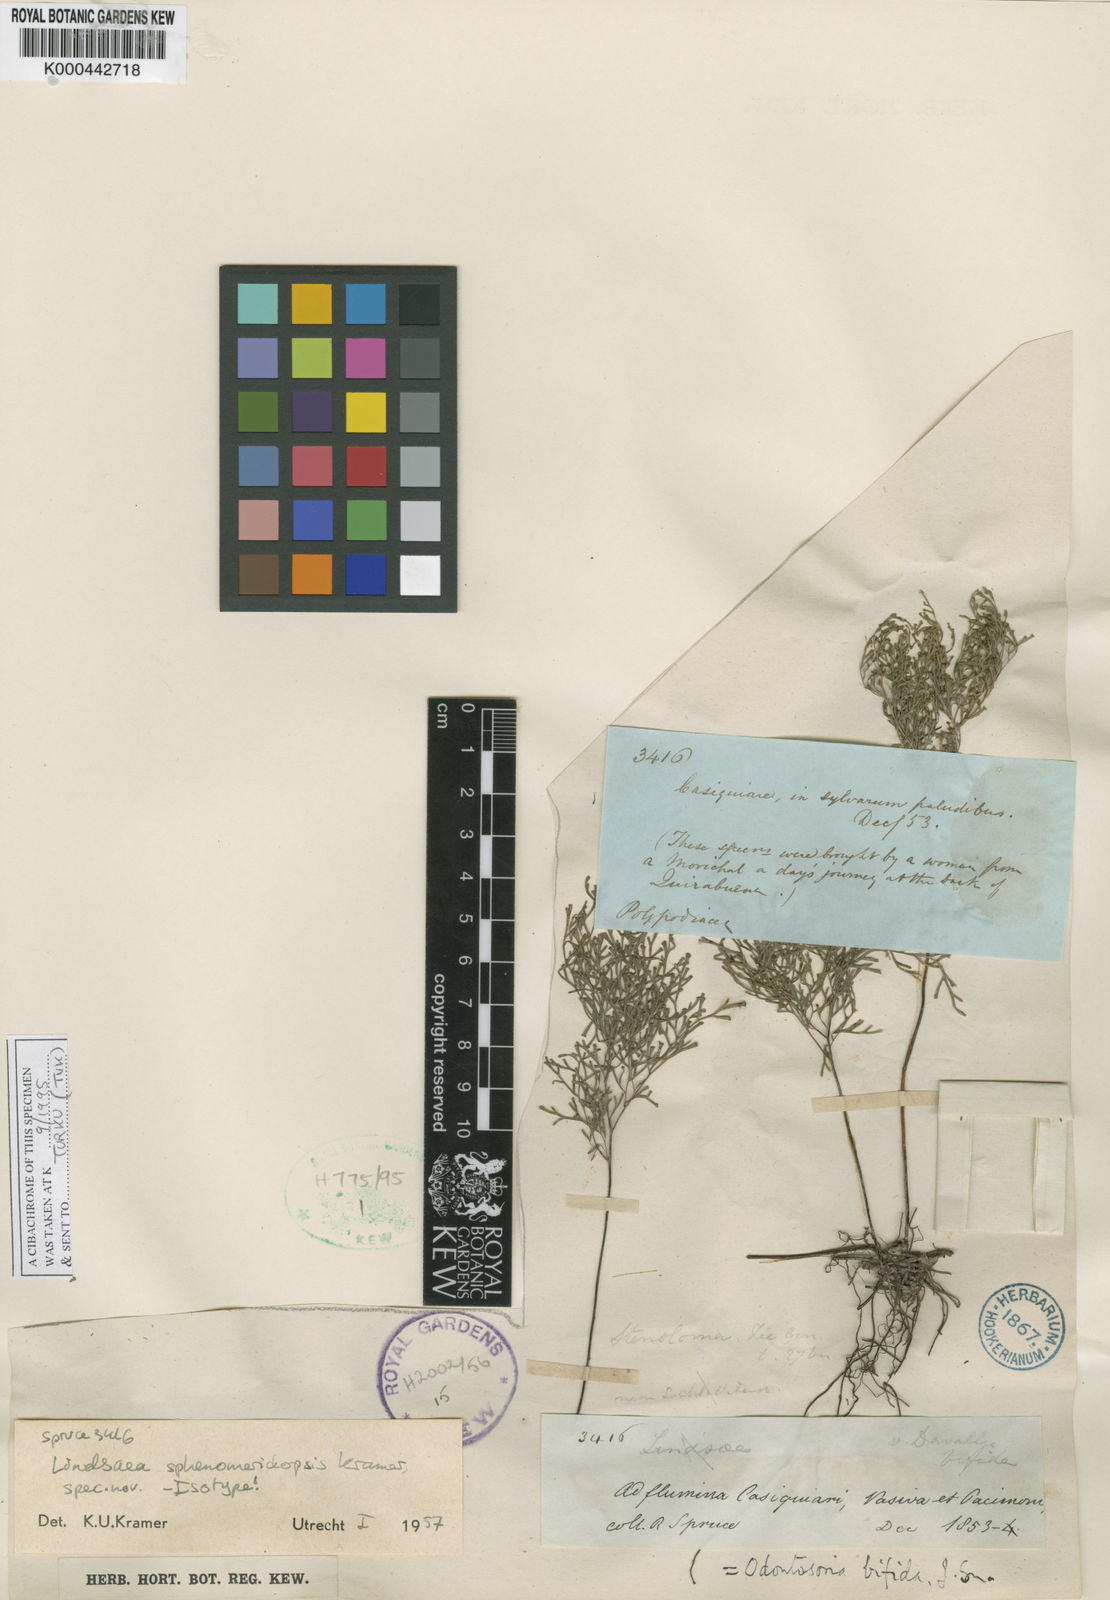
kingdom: Plantae
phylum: Tracheophyta
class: Polypodiopsida
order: Polypodiales
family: Lindsaeaceae
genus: Lindsaea
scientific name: Lindsaea sphenomeridopsis
